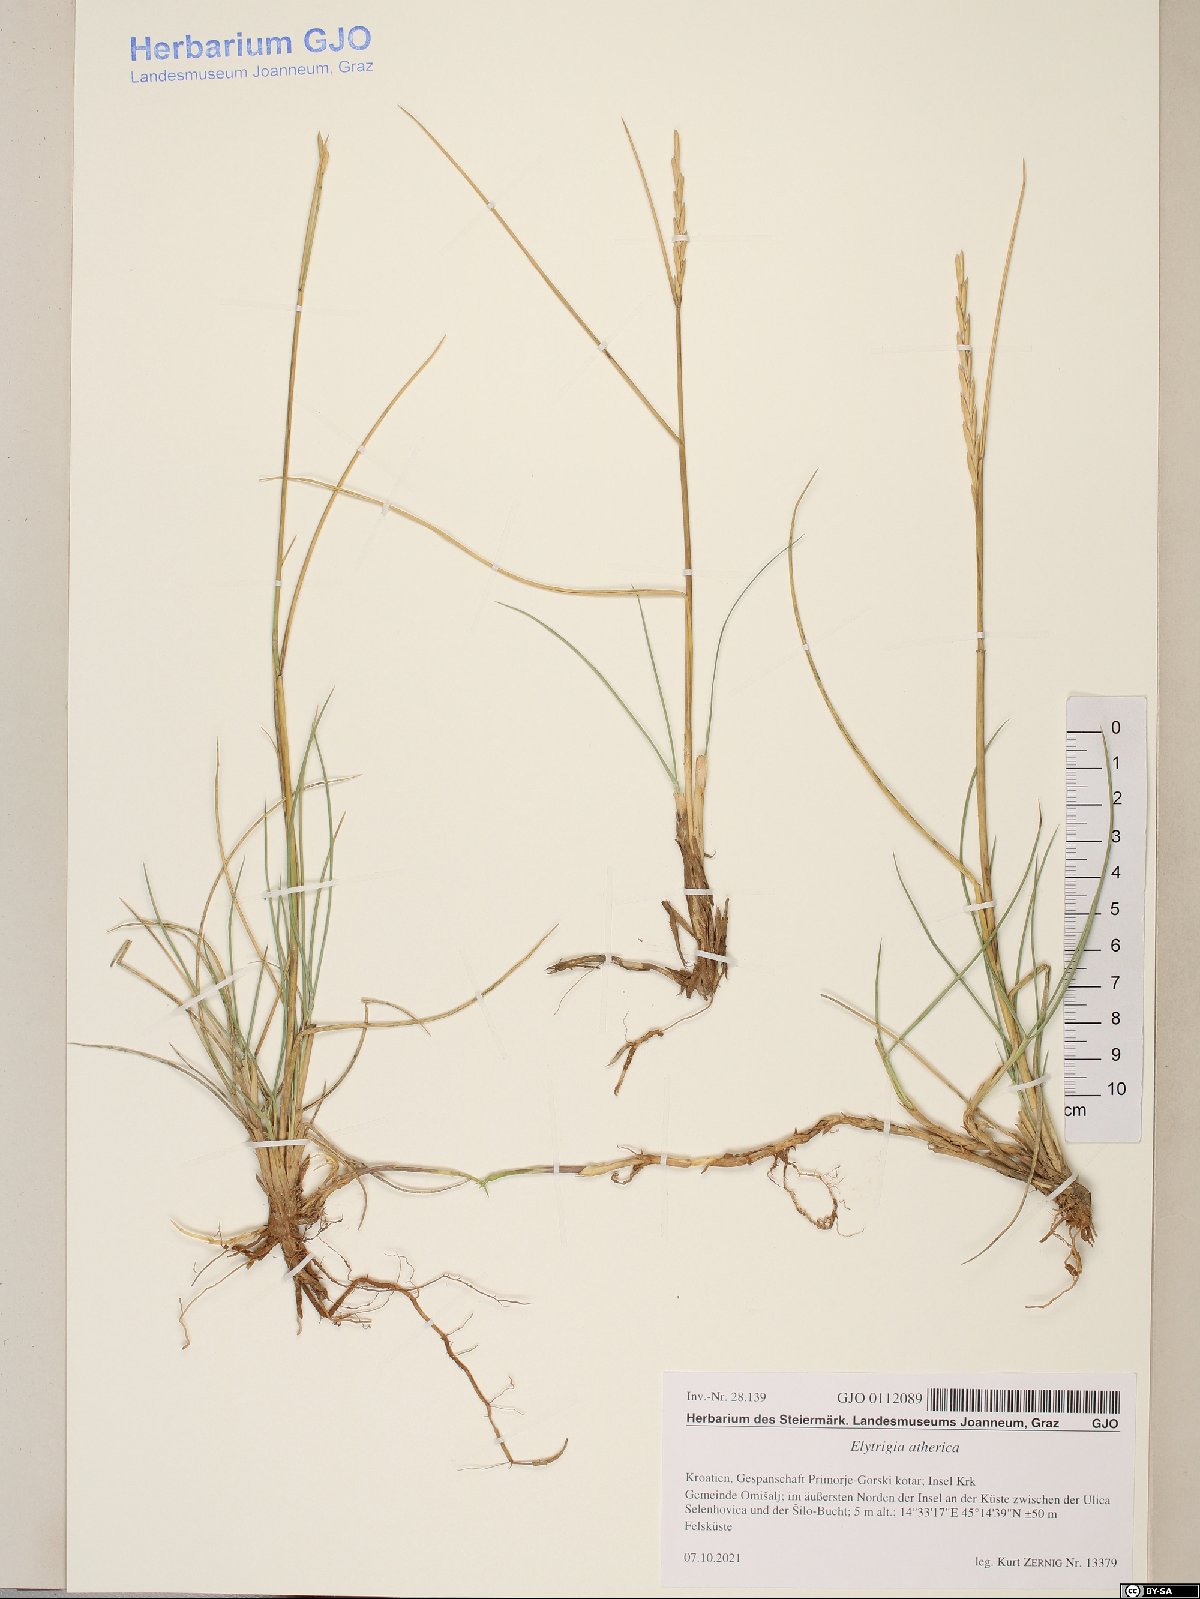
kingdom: Plantae
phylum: Tracheophyta
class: Liliopsida
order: Poales
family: Poaceae
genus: Elymus
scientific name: Elymus athericus
